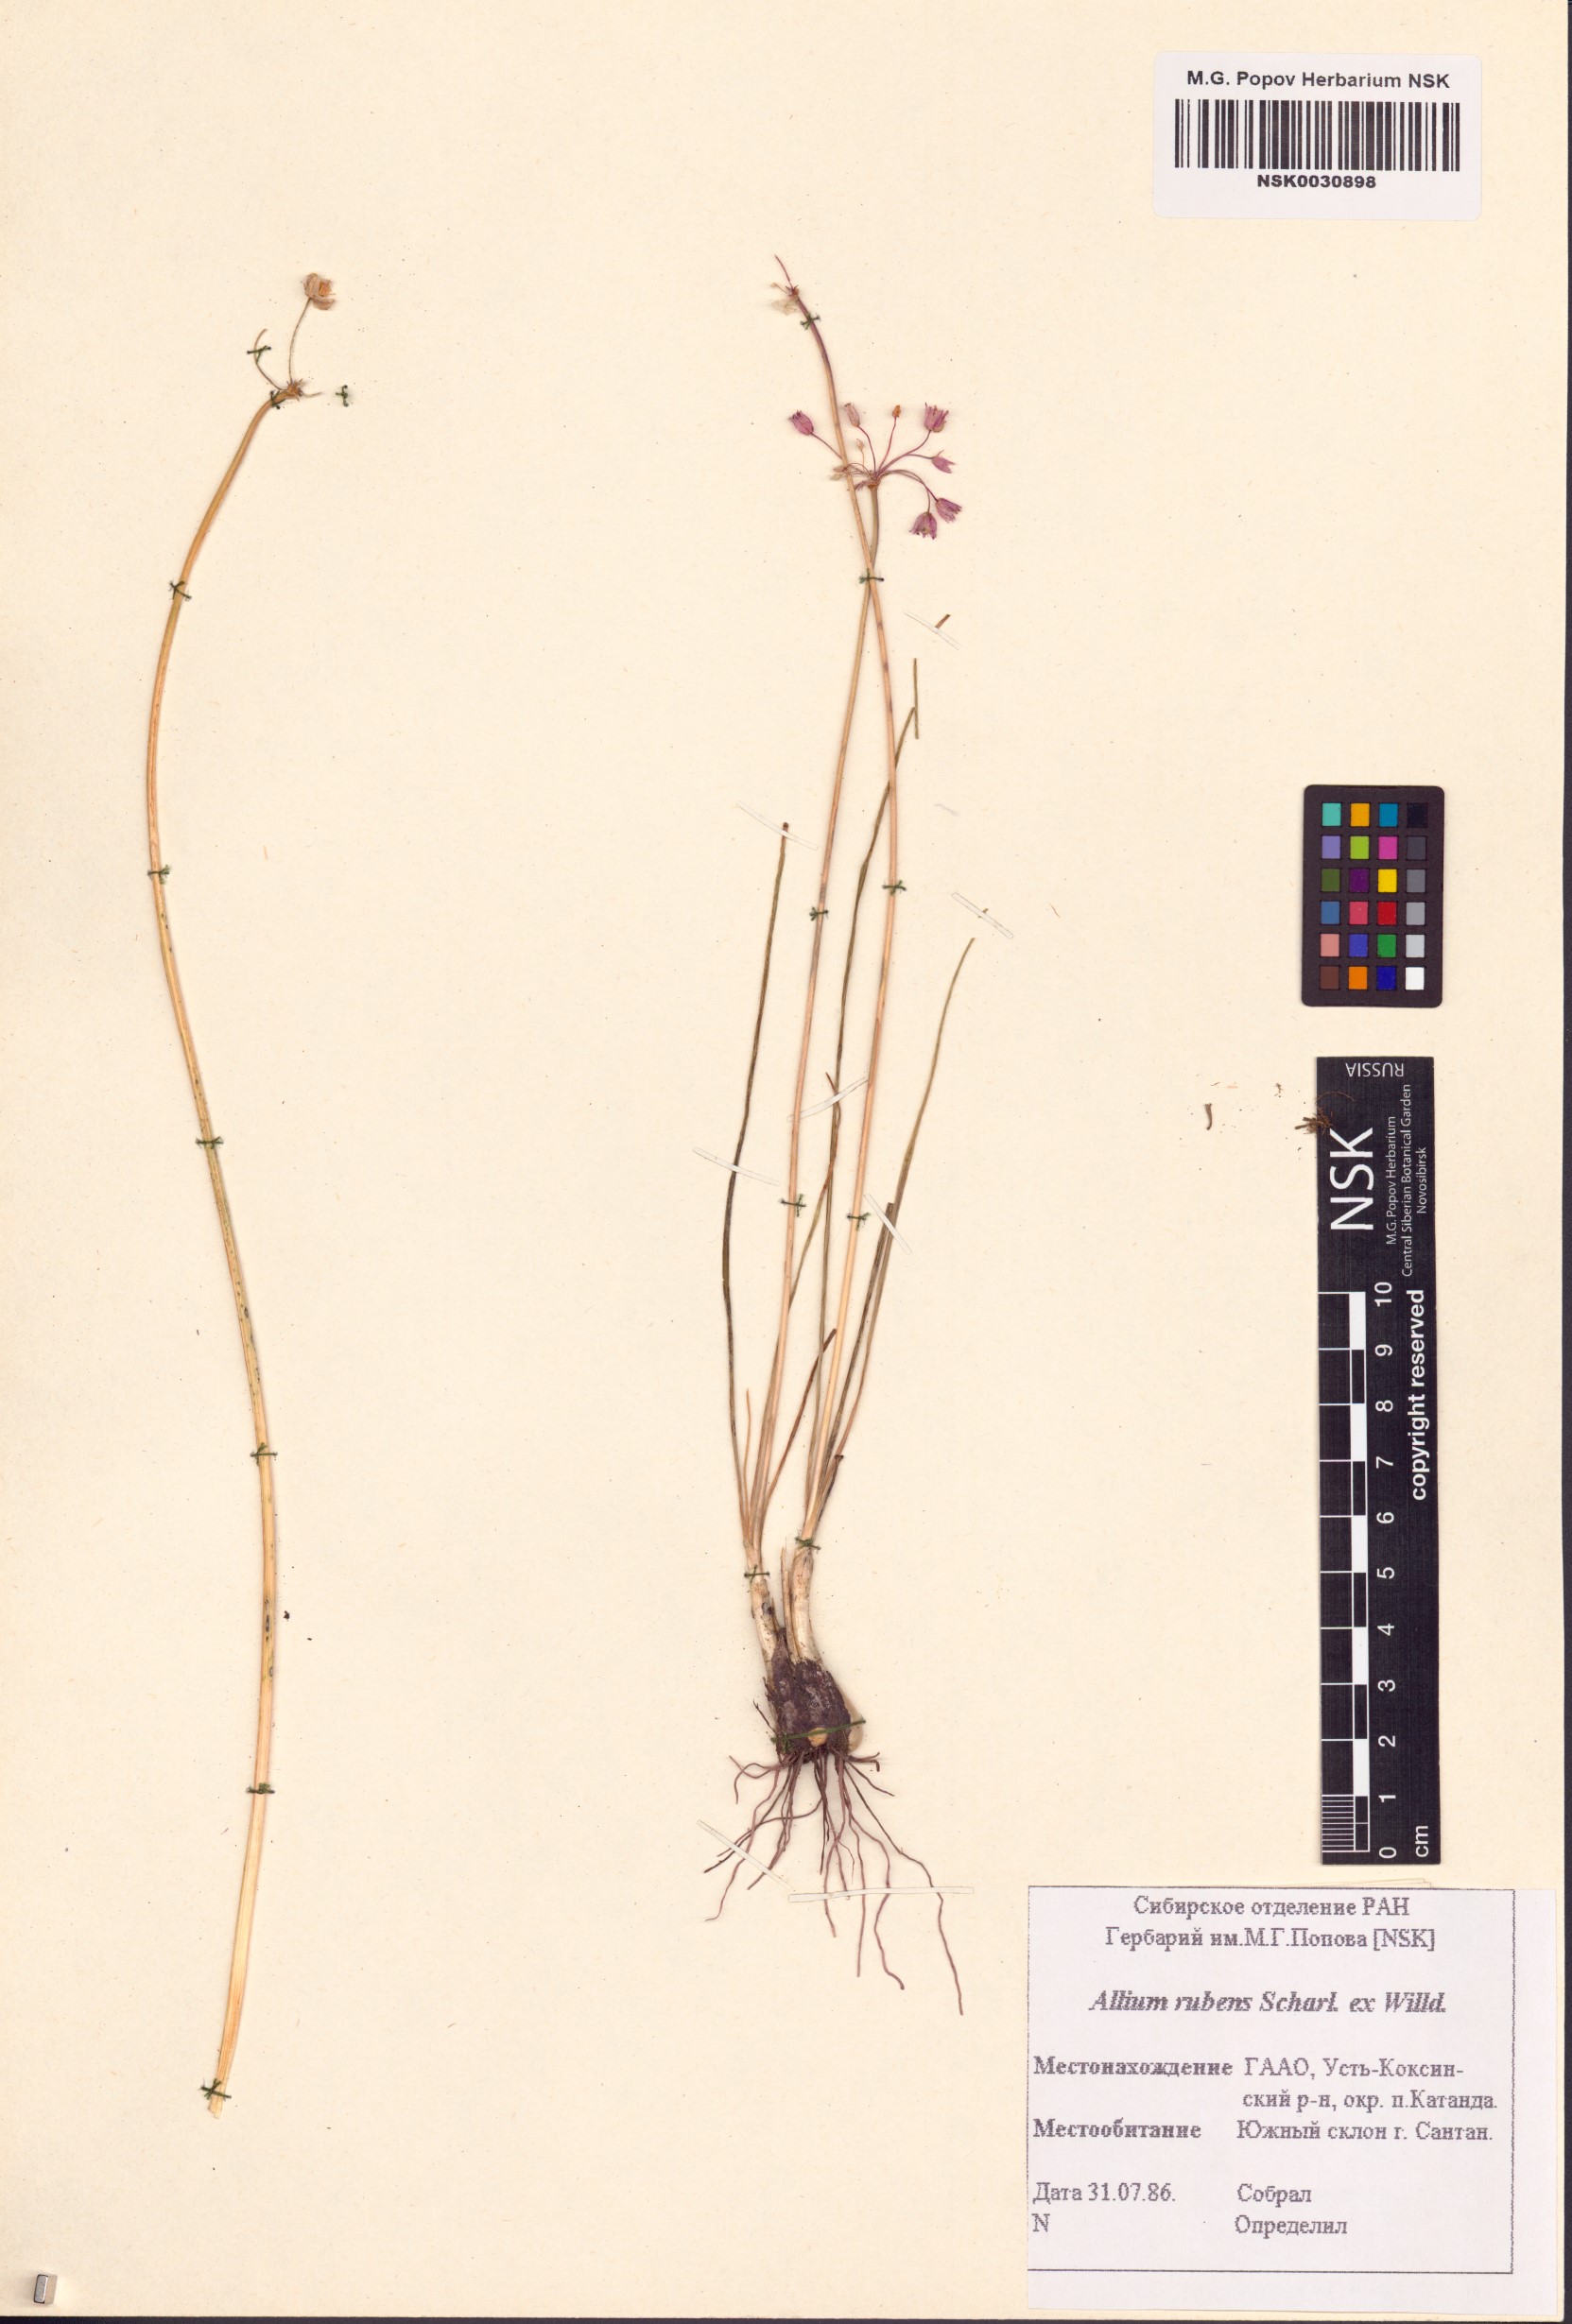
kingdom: Plantae
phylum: Tracheophyta
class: Liliopsida
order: Asparagales
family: Amaryllidaceae
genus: Allium
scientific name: Allium rubens
